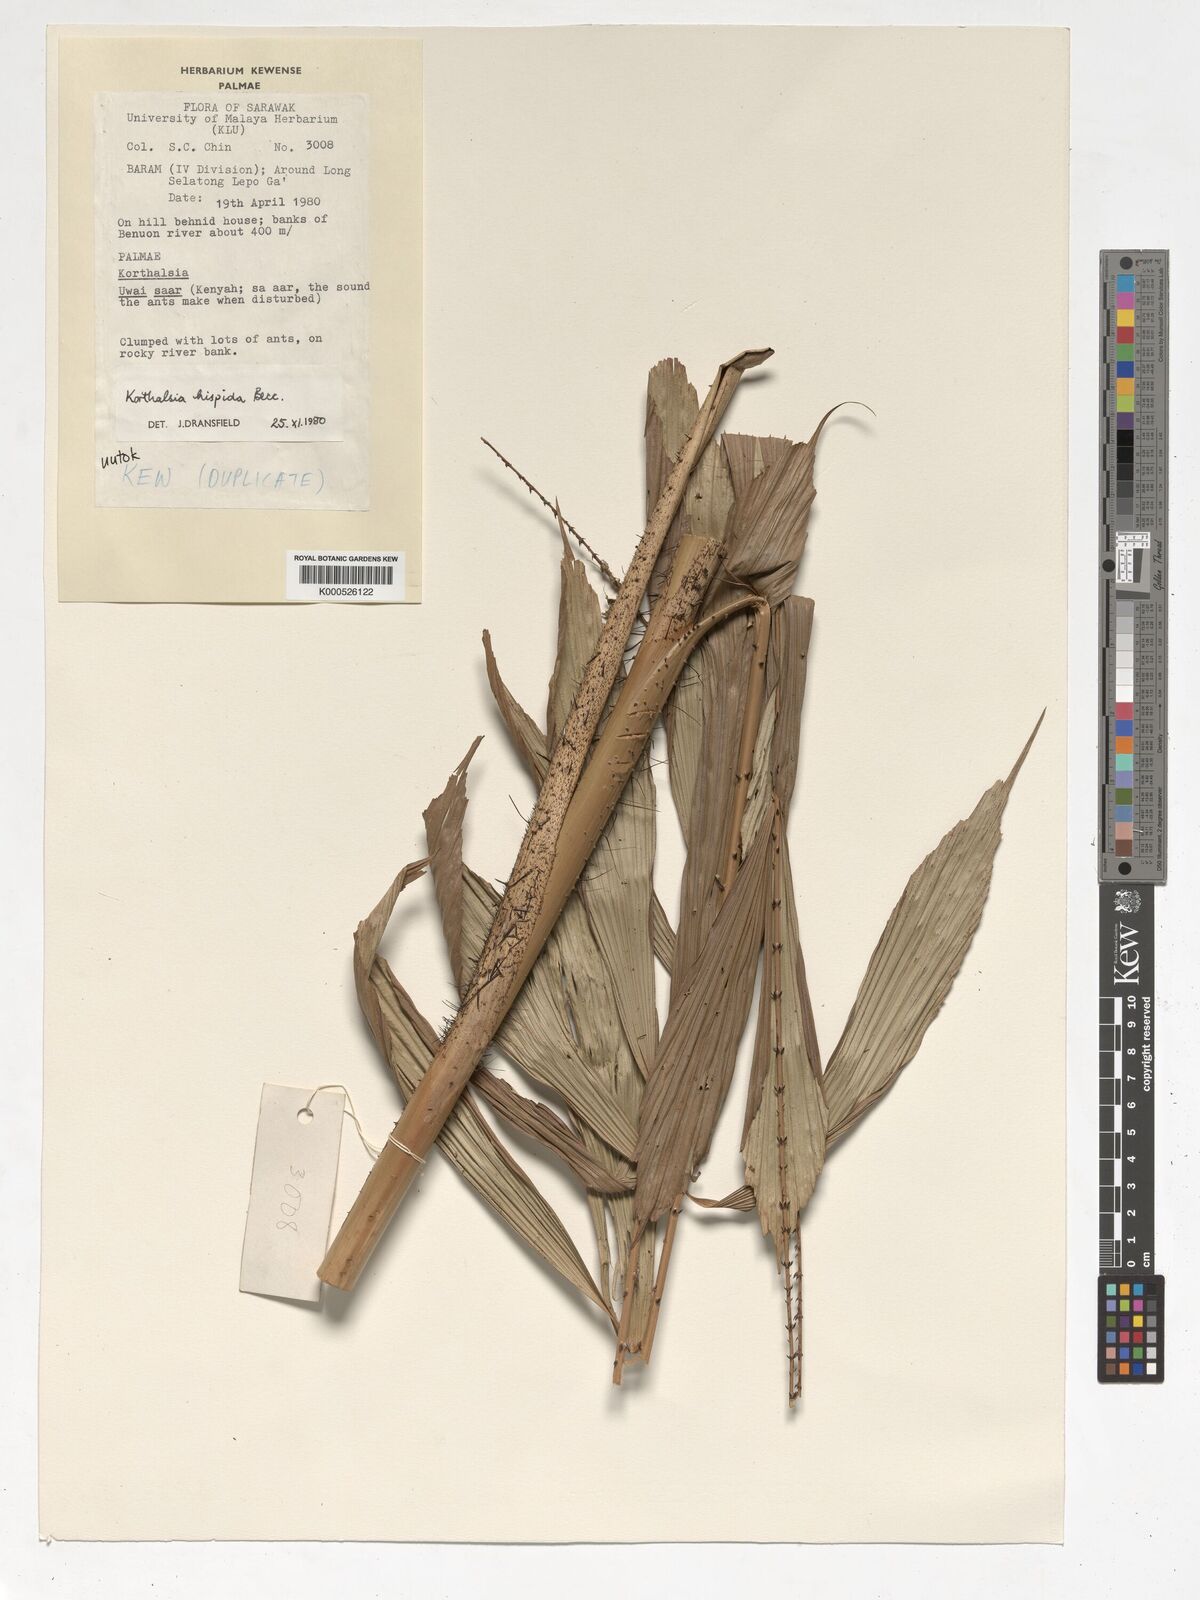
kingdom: Plantae
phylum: Tracheophyta
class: Liliopsida
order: Arecales
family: Arecaceae
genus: Korthalsia
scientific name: Korthalsia hispida
